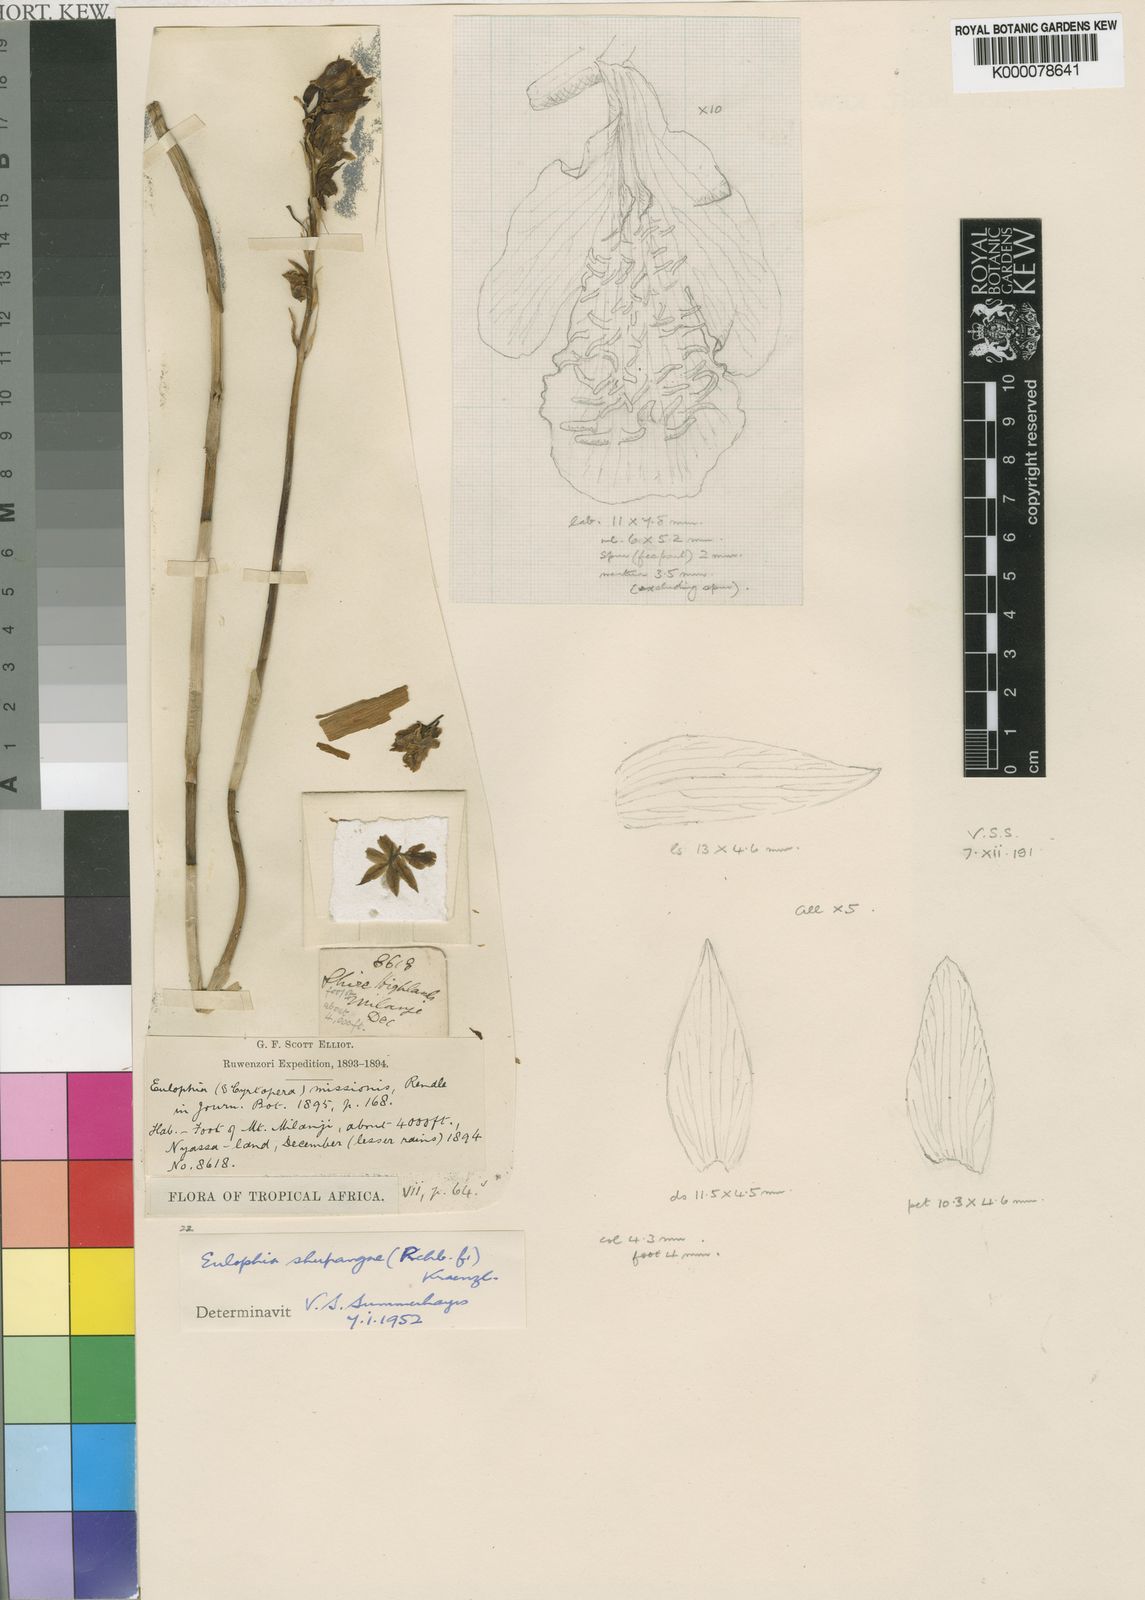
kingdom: Plantae
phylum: Tracheophyta
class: Liliopsida
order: Asparagales
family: Orchidaceae
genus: Eulophia
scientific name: Eulophia odontoglossa
